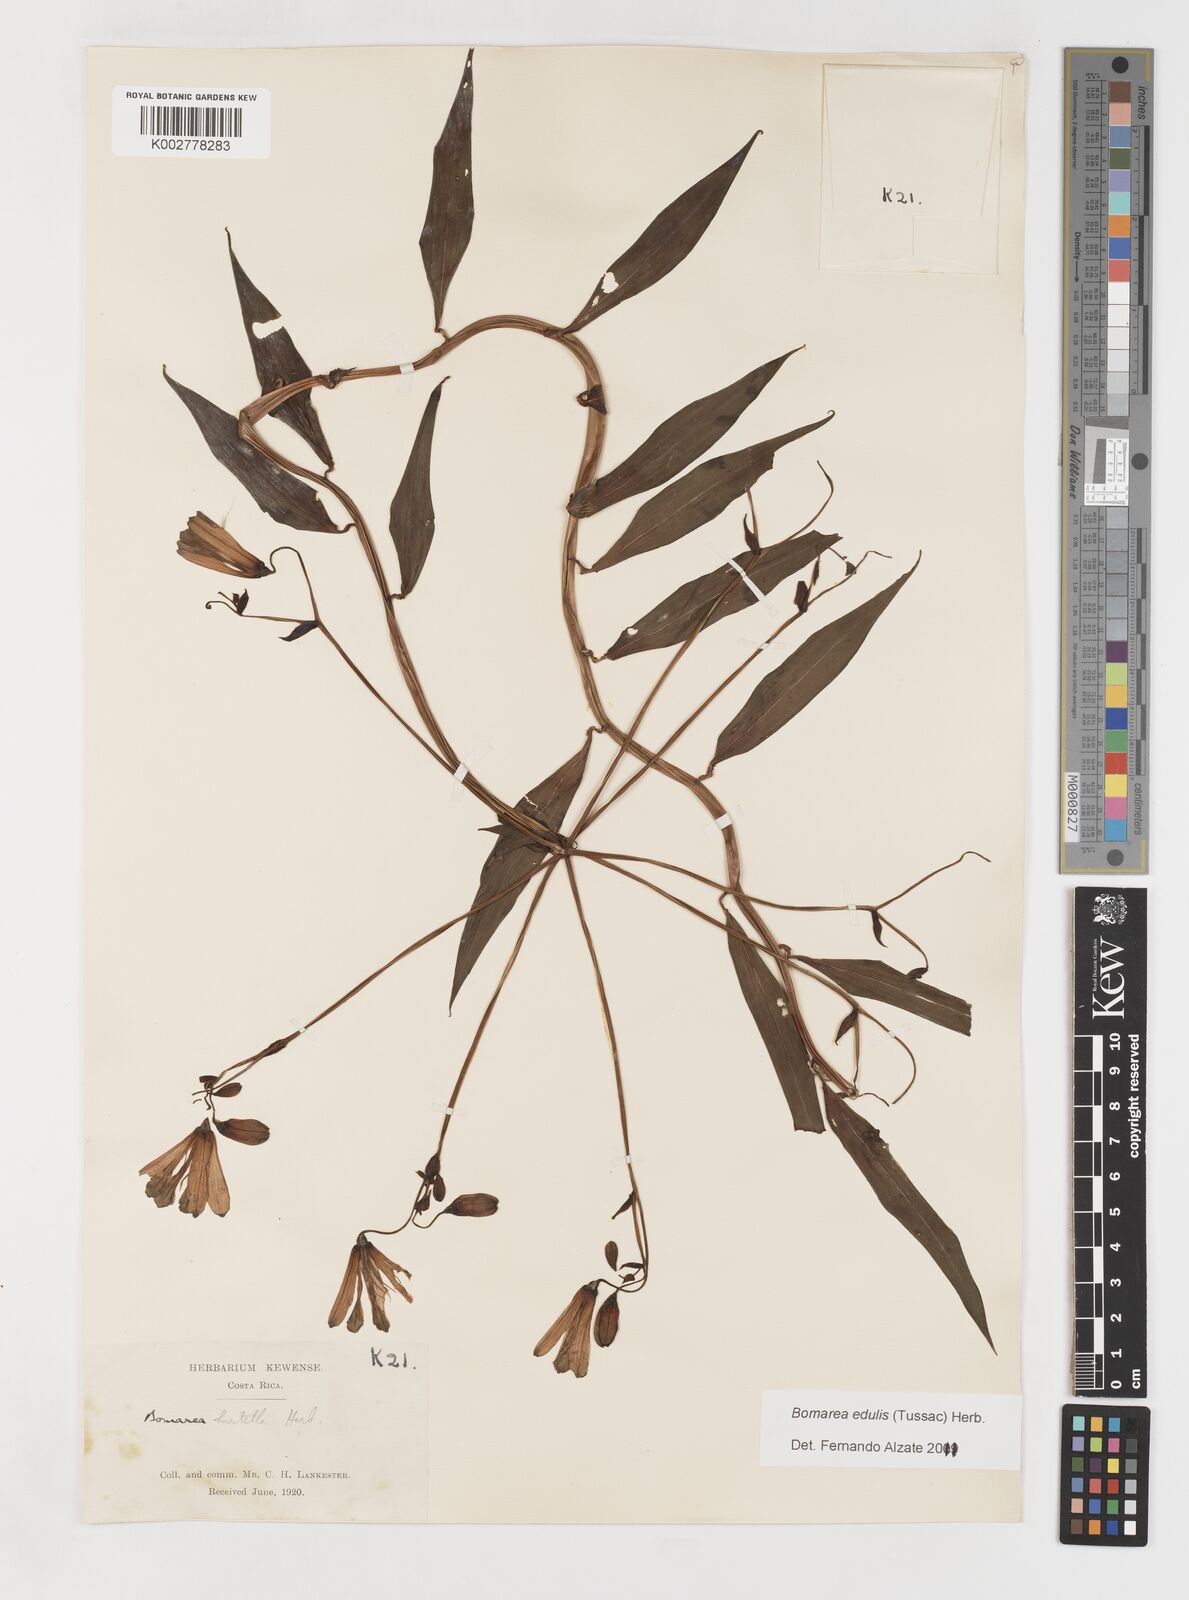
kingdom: Plantae
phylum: Tracheophyta
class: Liliopsida
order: Liliales
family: Alstroemeriaceae
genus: Bomarea
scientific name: Bomarea edulis
